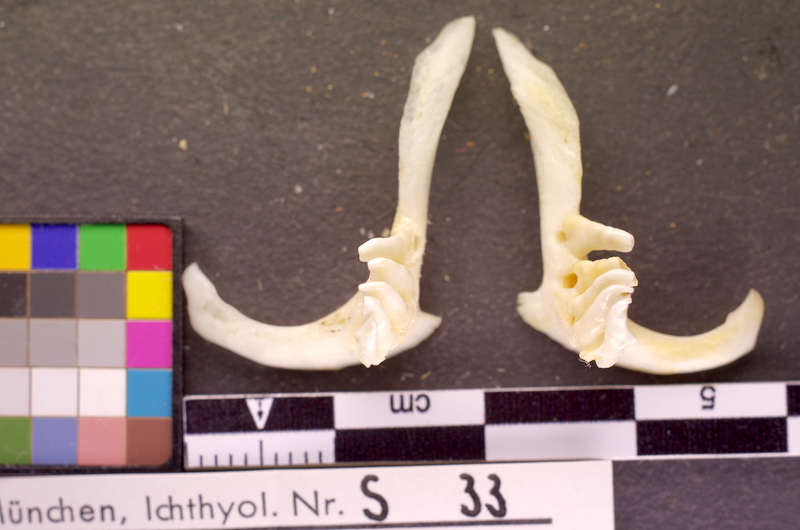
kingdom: Animalia
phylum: Chordata
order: Cypriniformes
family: Cyprinidae
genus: Abramis
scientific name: Abramis brama
